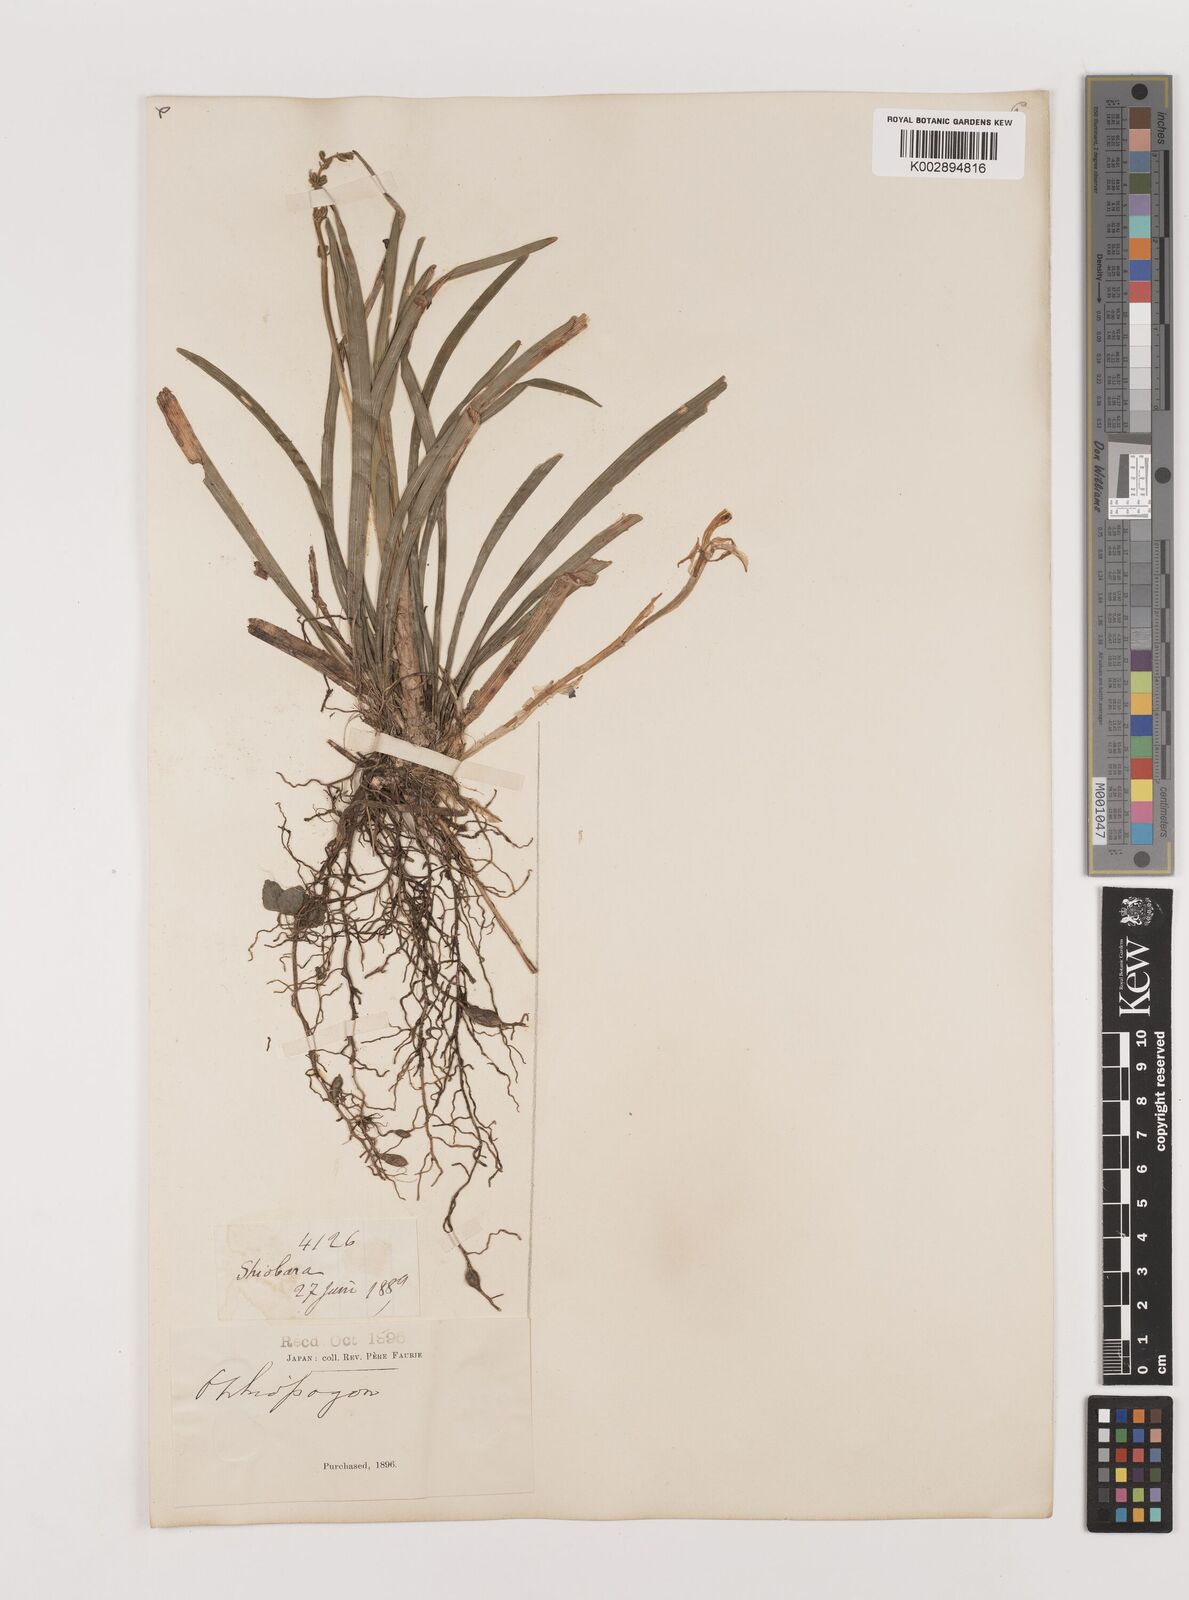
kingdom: Plantae
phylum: Tracheophyta
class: Liliopsida
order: Asparagales
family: Asparagaceae
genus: Ophiopogon
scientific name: Ophiopogon planiscapus
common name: Black mondo
